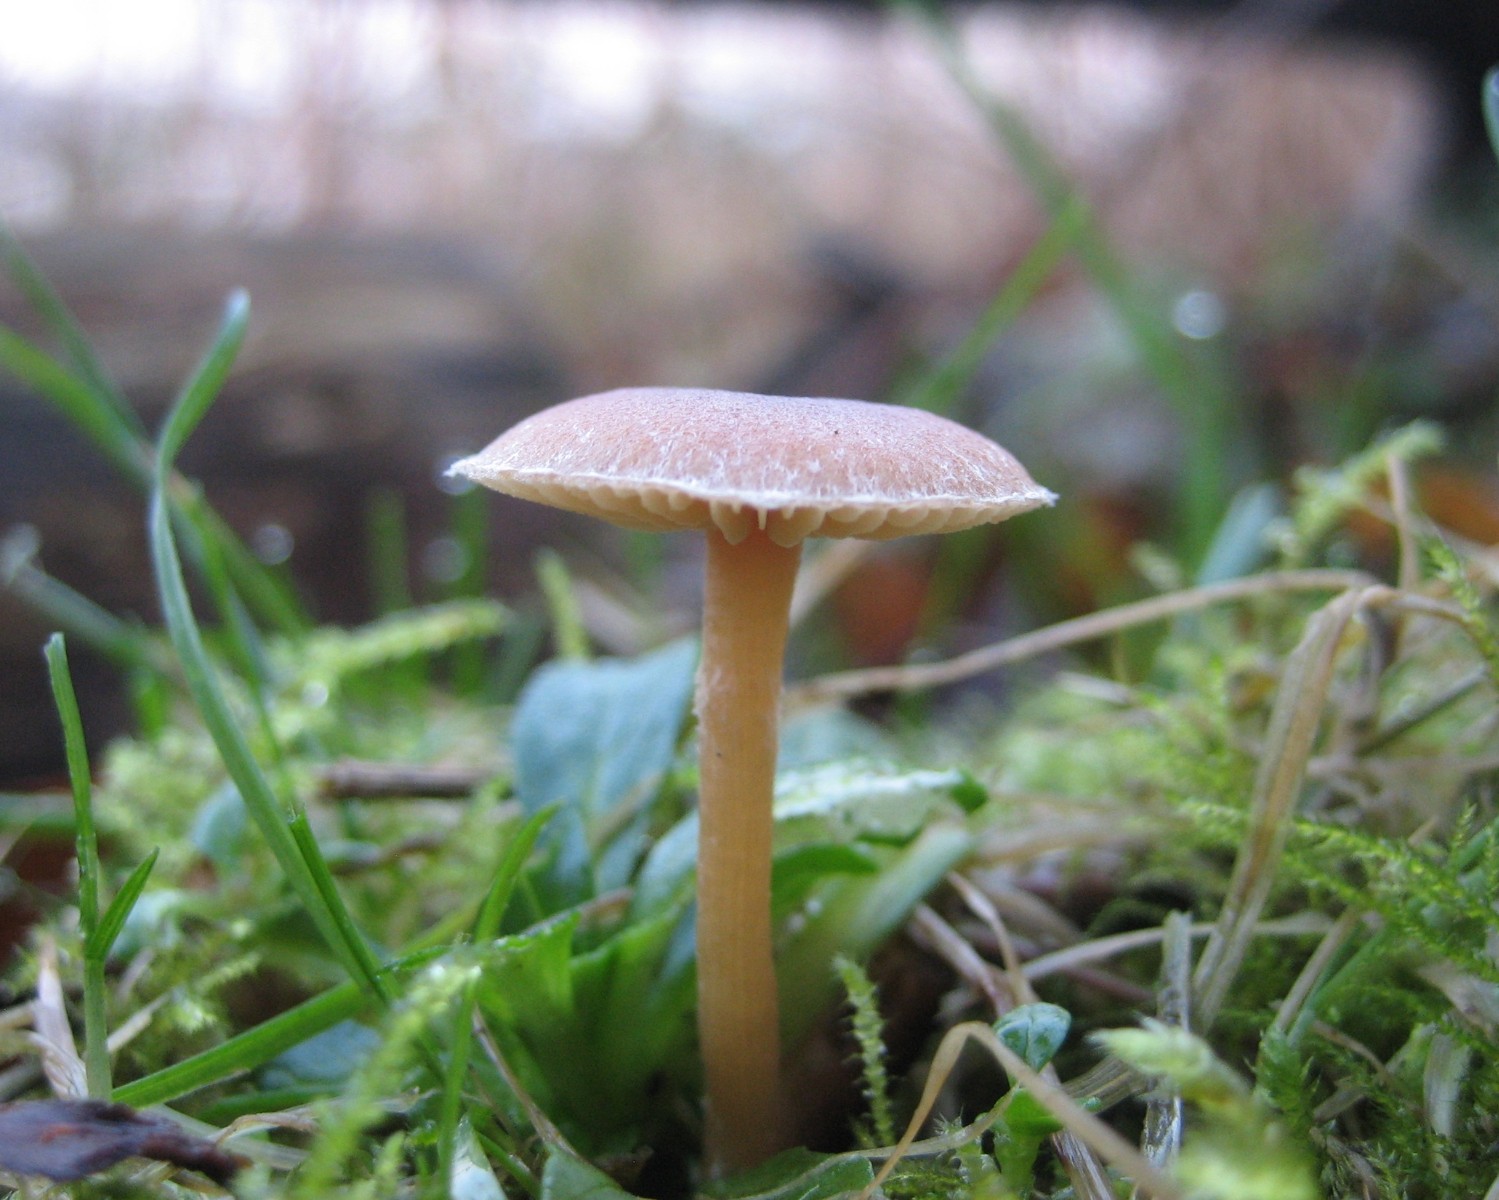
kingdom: Fungi
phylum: Basidiomycota
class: Agaricomycetes
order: Agaricales
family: Tubariaceae
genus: Tubaria
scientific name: Tubaria furfuracea
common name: kliddet fnughat
